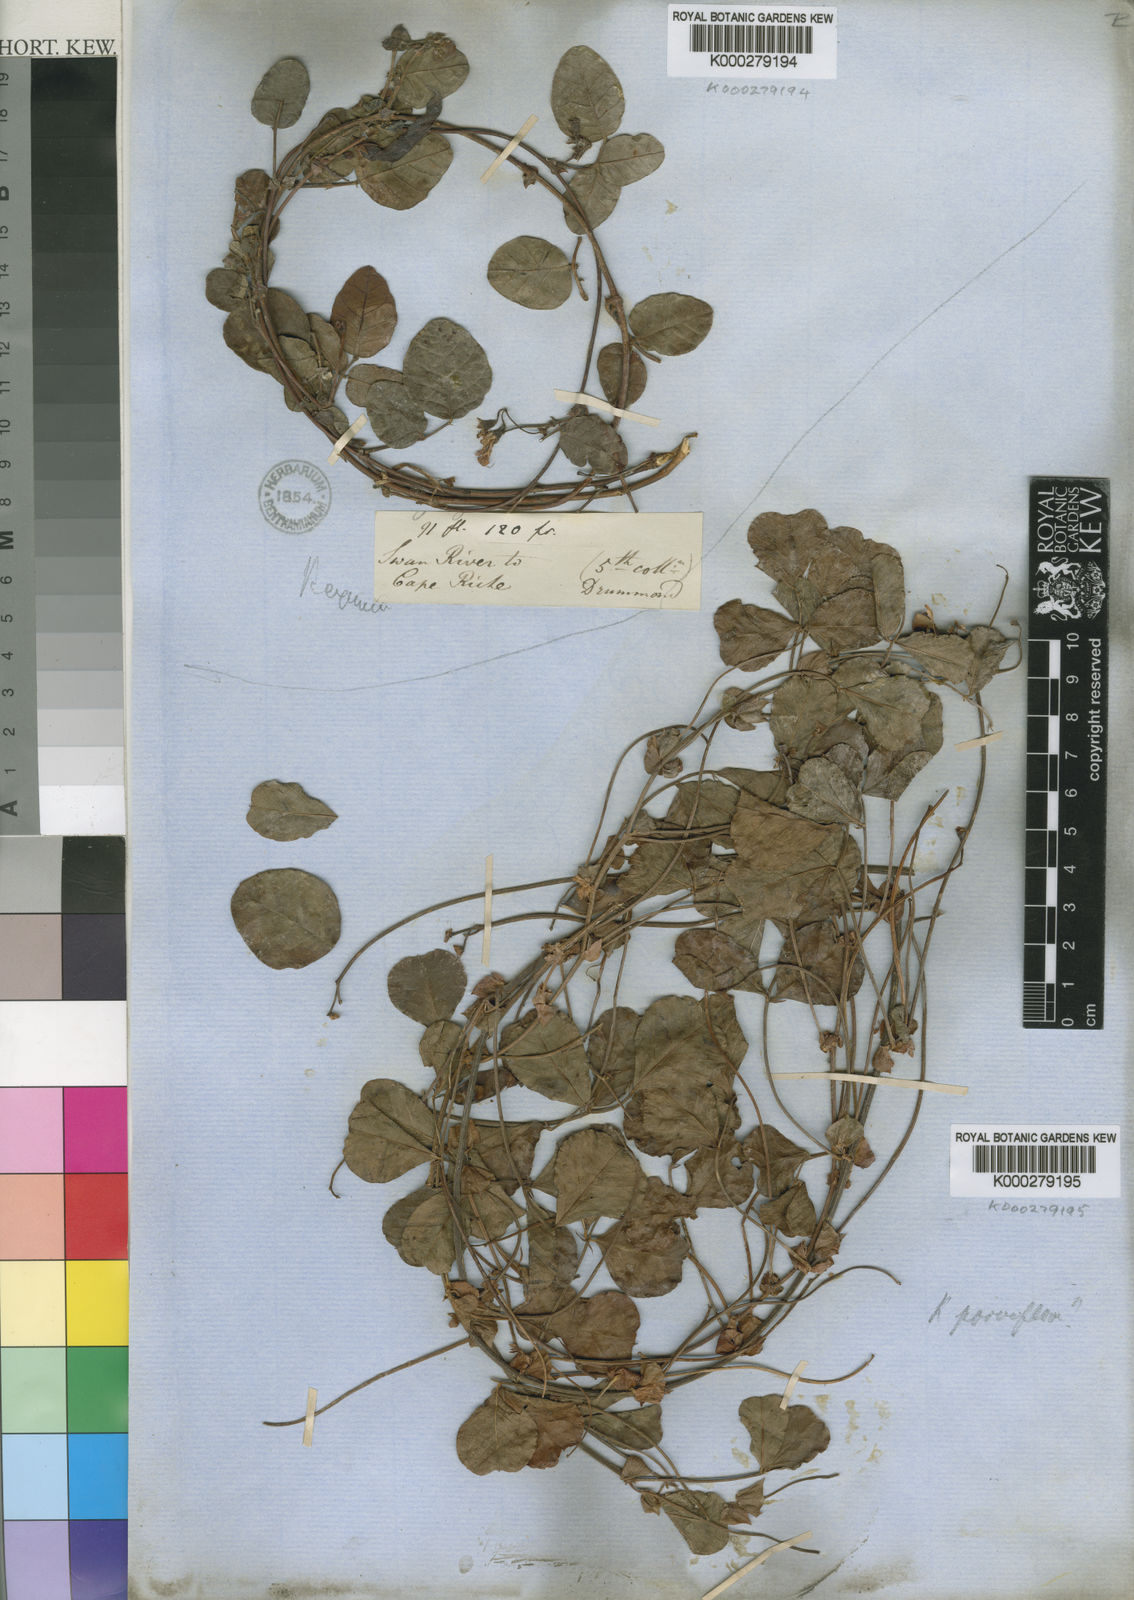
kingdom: Plantae
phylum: Tracheophyta
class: Magnoliopsida
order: Fabales
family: Fabaceae
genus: Kennedia
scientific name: Kennedia parviflora
